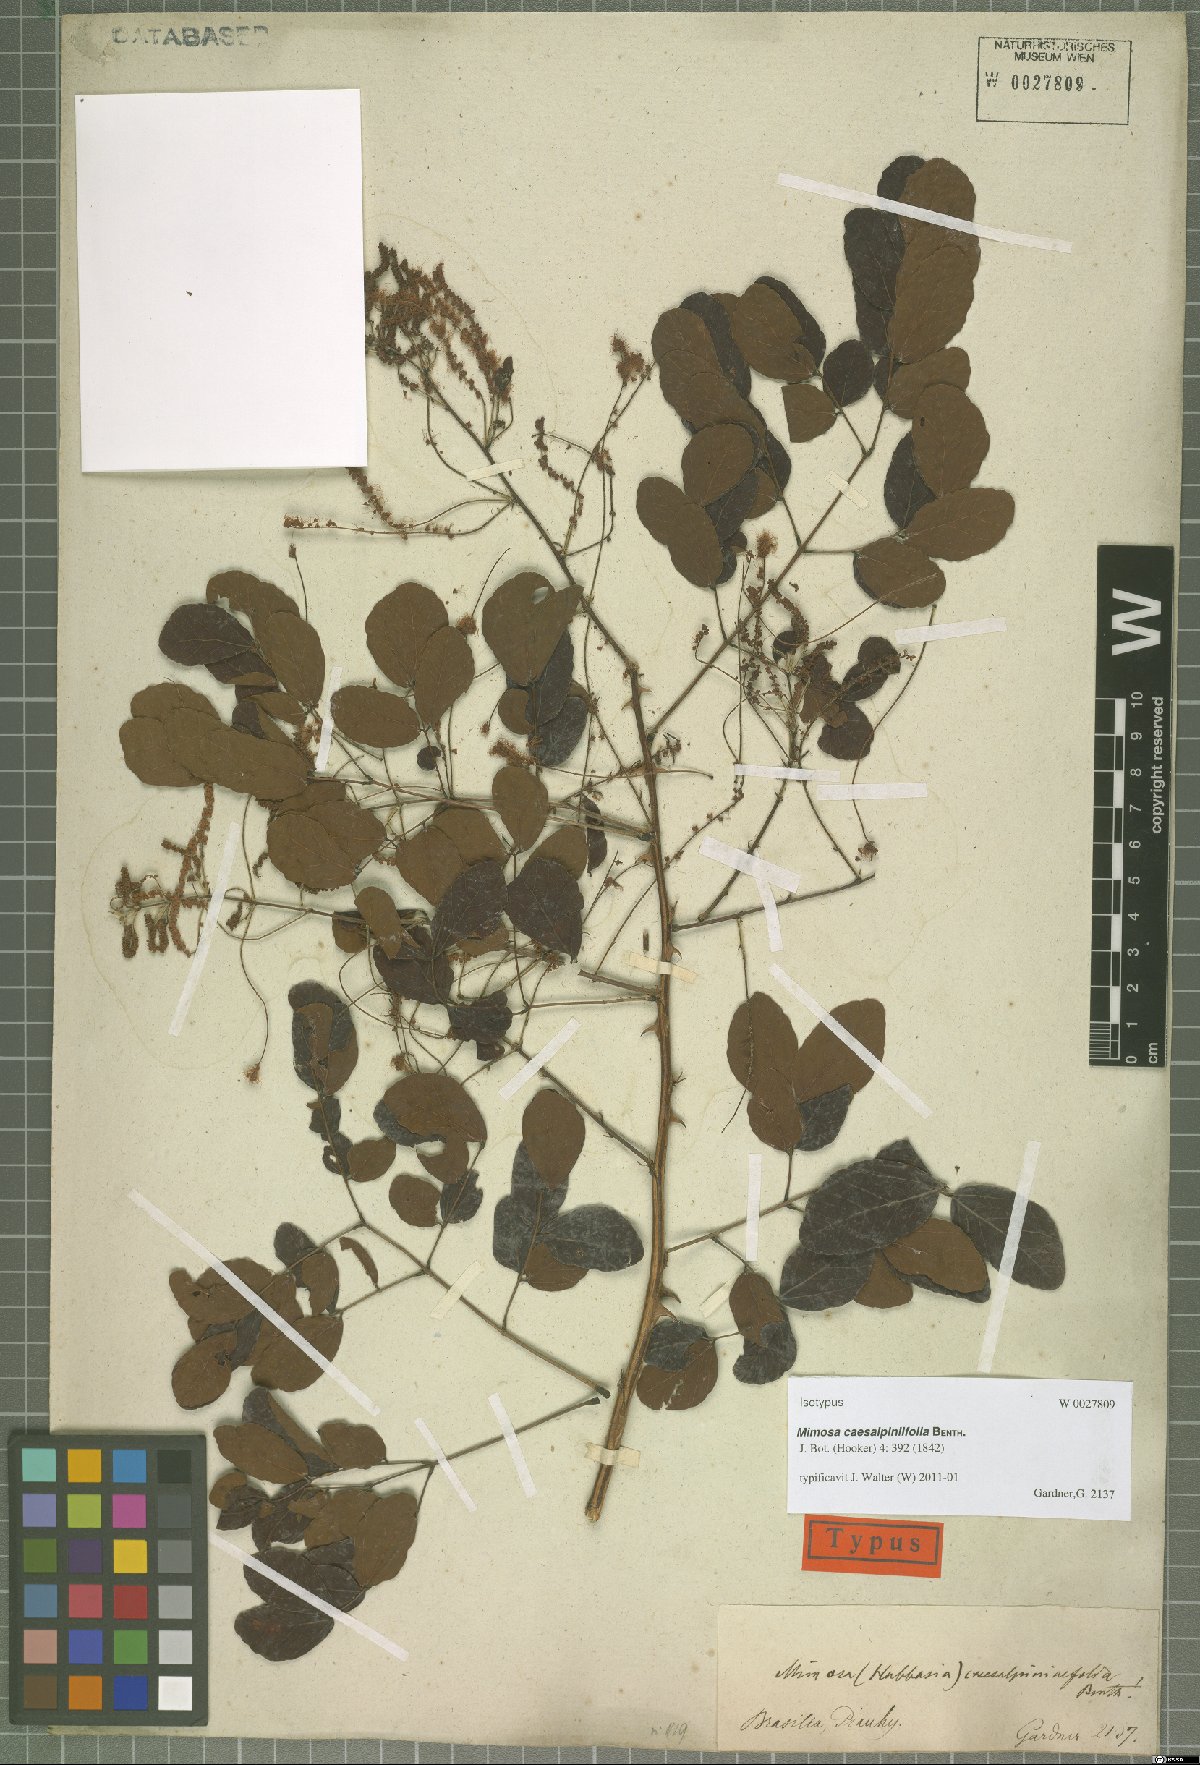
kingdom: Plantae
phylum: Tracheophyta
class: Magnoliopsida
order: Fabales
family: Fabaceae
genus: Mimosa
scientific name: Mimosa caesalpiniifolia
